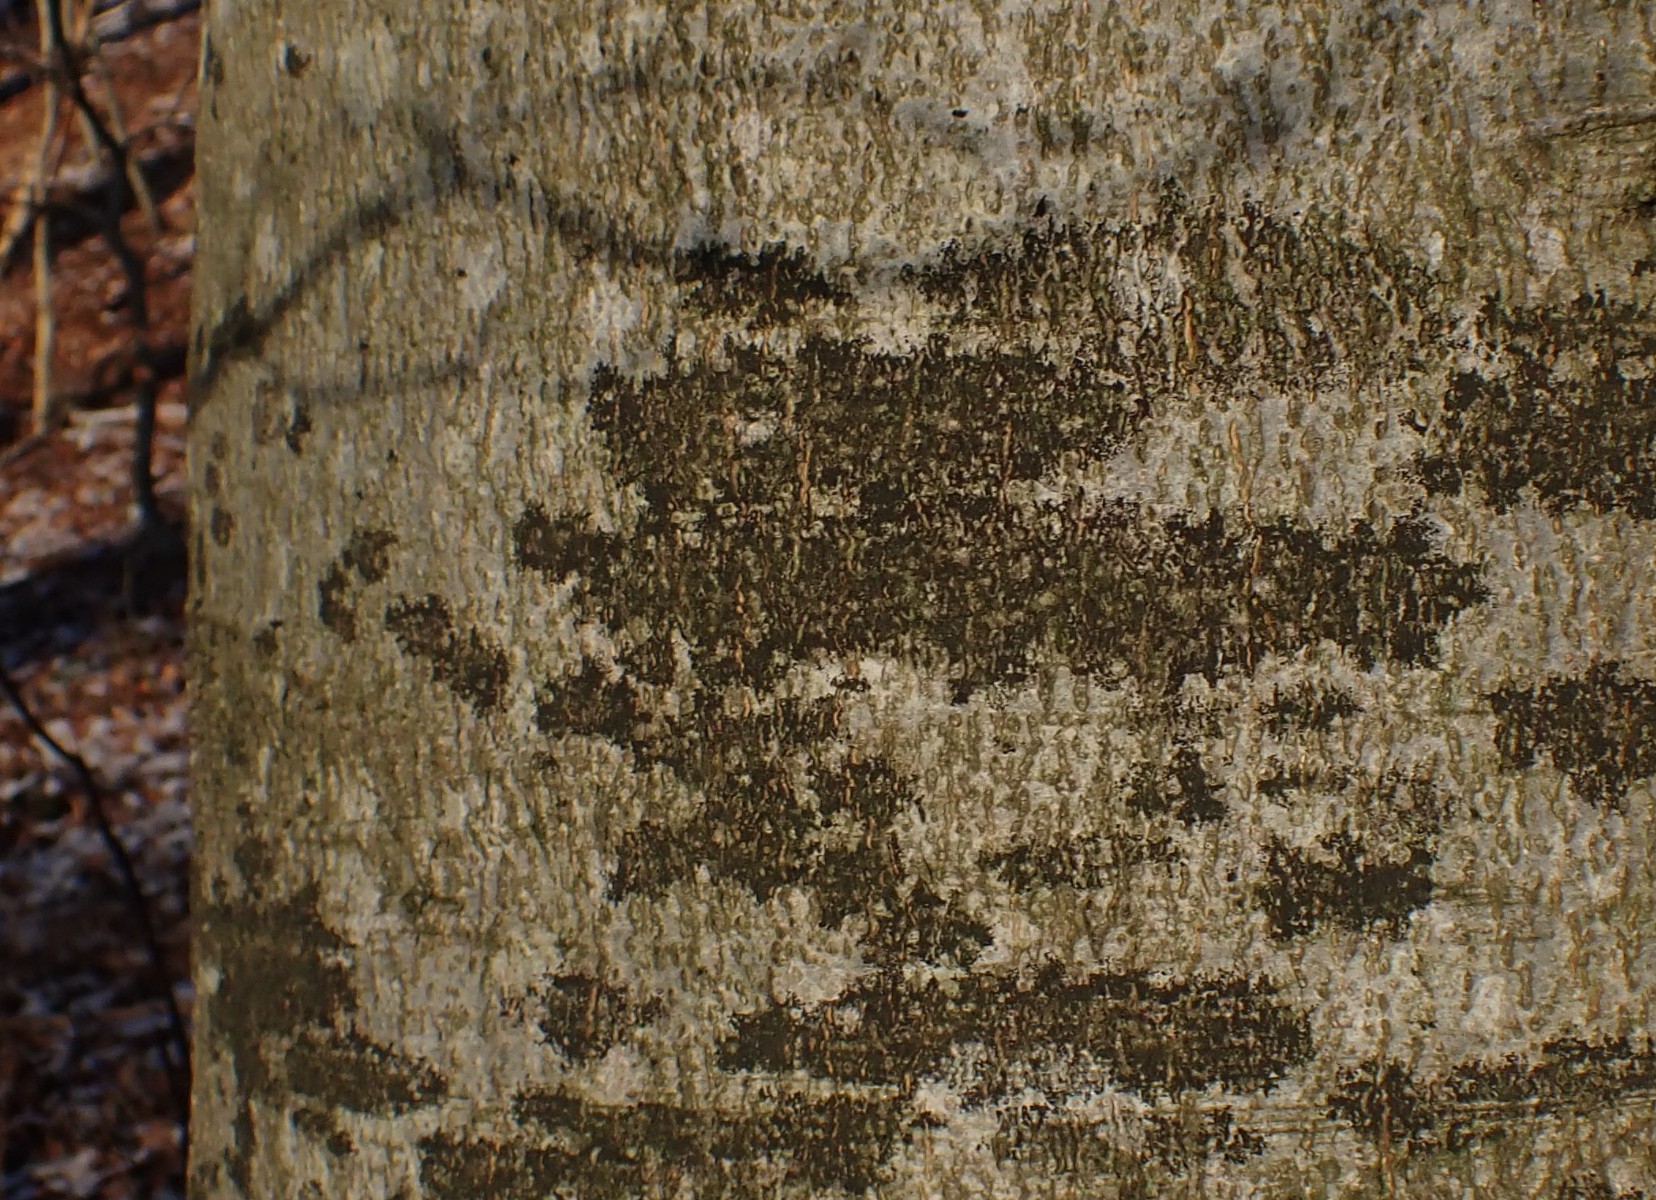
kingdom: Fungi
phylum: Ascomycota
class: Leotiomycetes
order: Rhytismatales
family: Ascodichaenaceae
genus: Ascodichaena
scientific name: Ascodichaena rugosa
